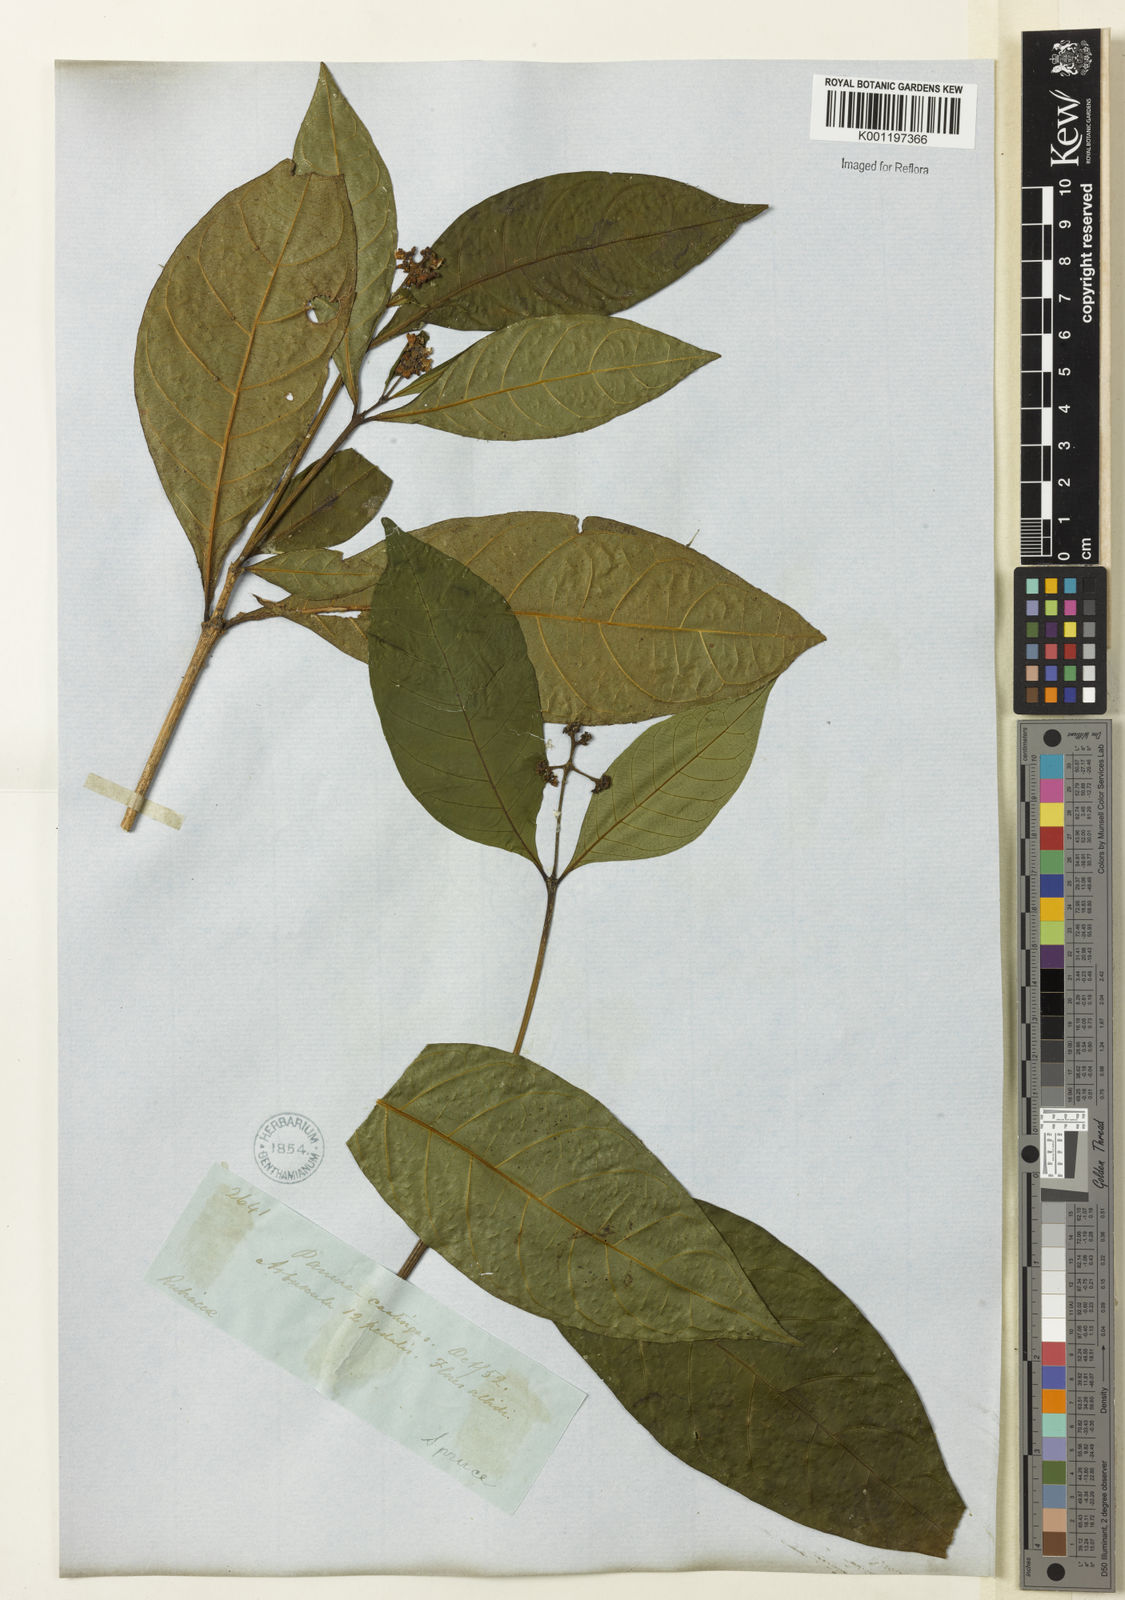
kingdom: Plantae
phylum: Tracheophyta
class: Magnoliopsida
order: Gentianales
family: Rubiaceae
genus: Palicourea
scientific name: Palicourea coussareoides
